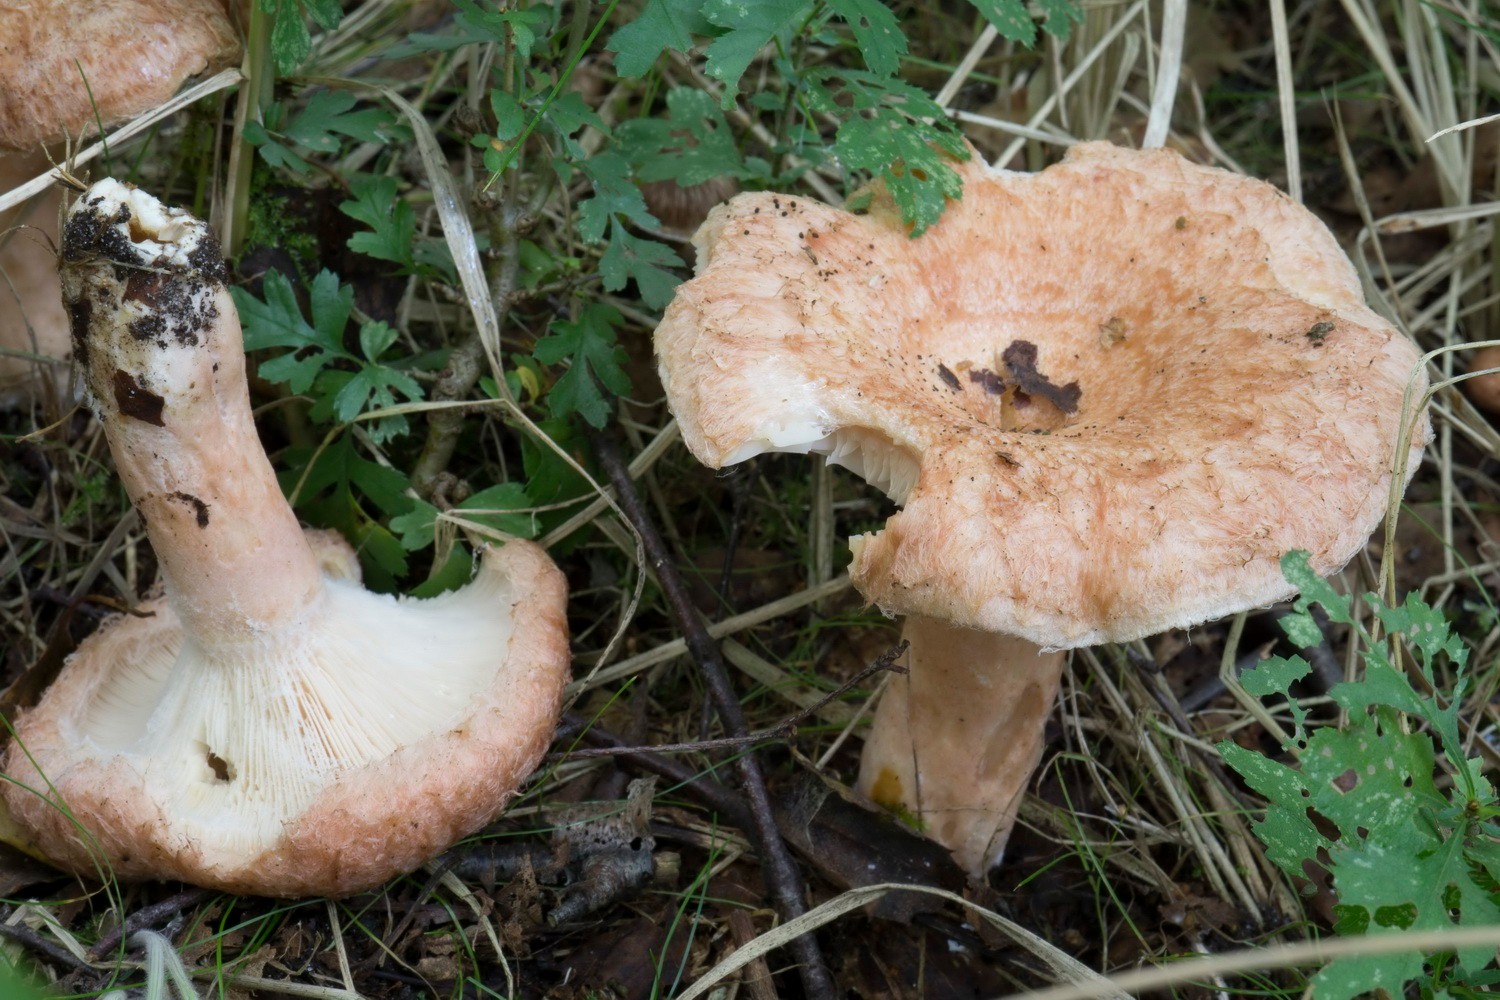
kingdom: Fungi
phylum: Basidiomycota
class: Agaricomycetes
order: Russulales
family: Russulaceae
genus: Lactarius
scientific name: Lactarius torminosus
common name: skægget mælkehat
